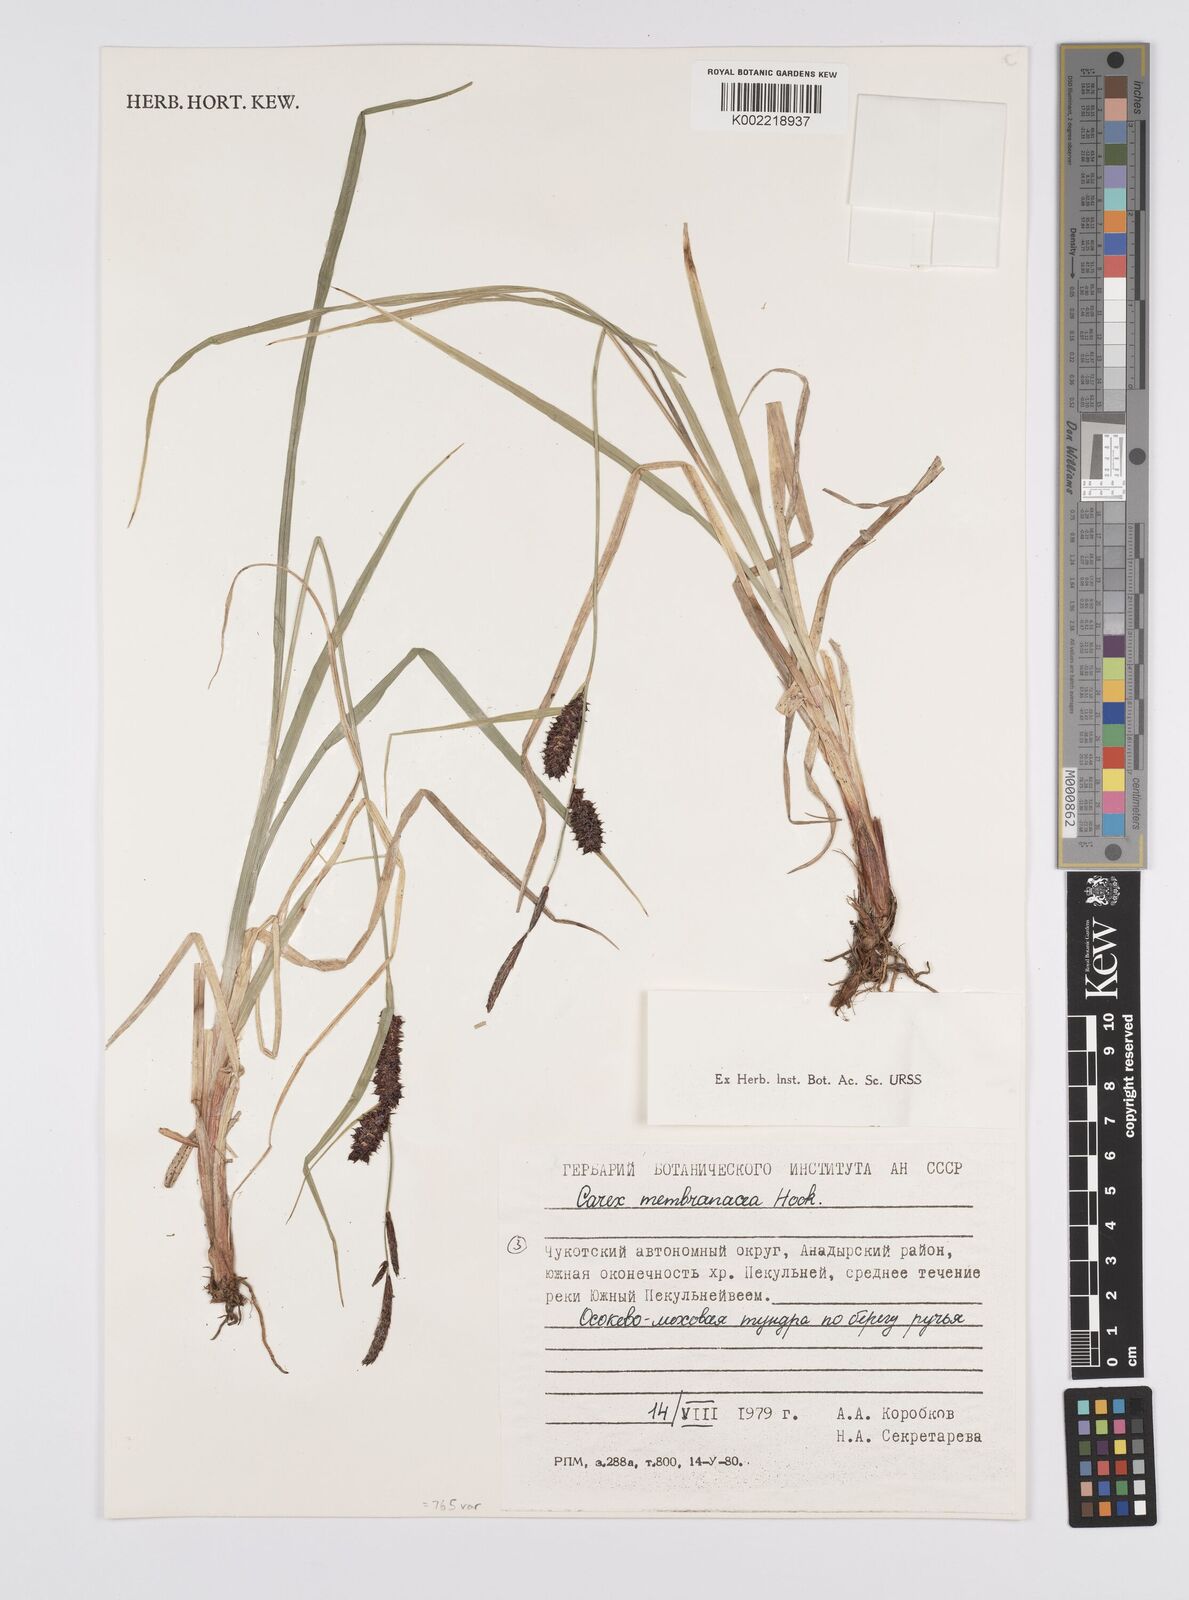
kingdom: Plantae
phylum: Tracheophyta
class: Liliopsida
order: Poales
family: Cyperaceae
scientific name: Cyperaceae
